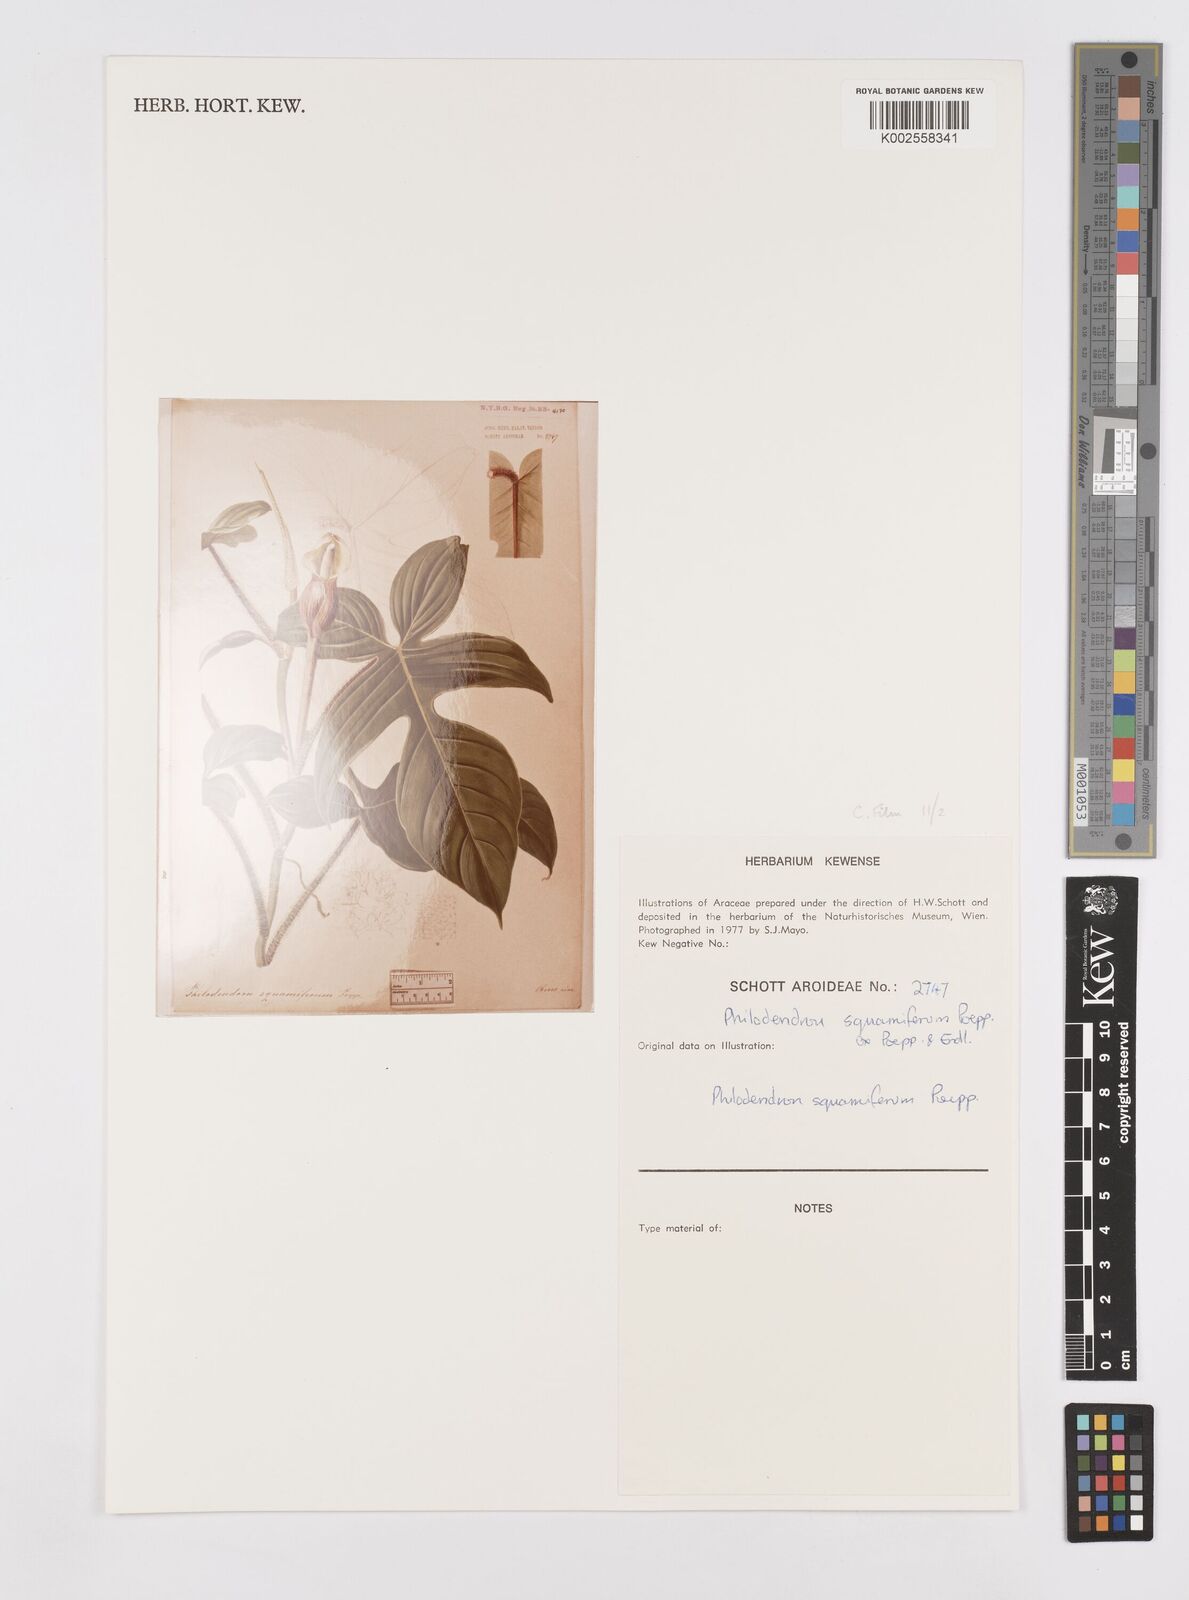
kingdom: Plantae
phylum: Tracheophyta
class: Liliopsida
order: Alismatales
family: Araceae
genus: Philodendron
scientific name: Philodendron squamiferum
